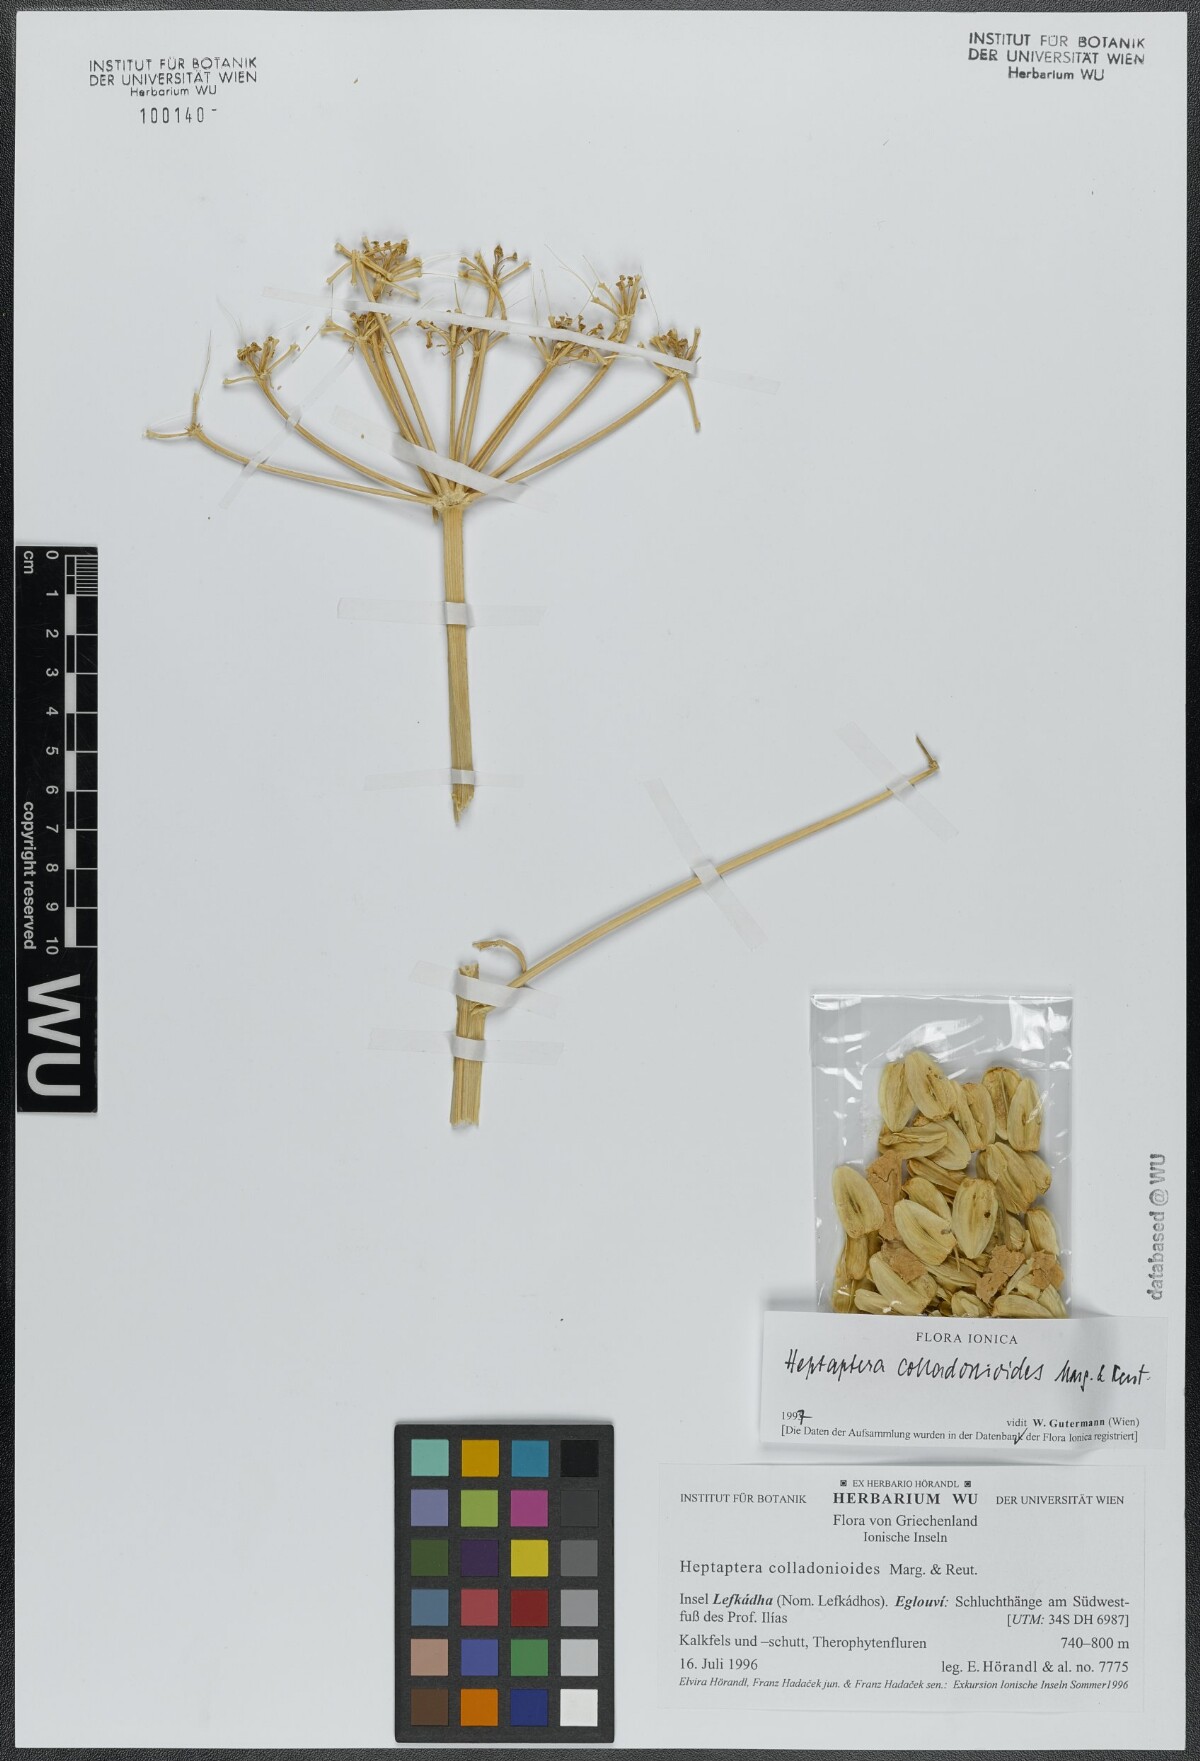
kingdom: Plantae
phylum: Tracheophyta
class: Magnoliopsida
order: Apiales
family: Apiaceae
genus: Heptaptera
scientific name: Heptaptera colladonioides
